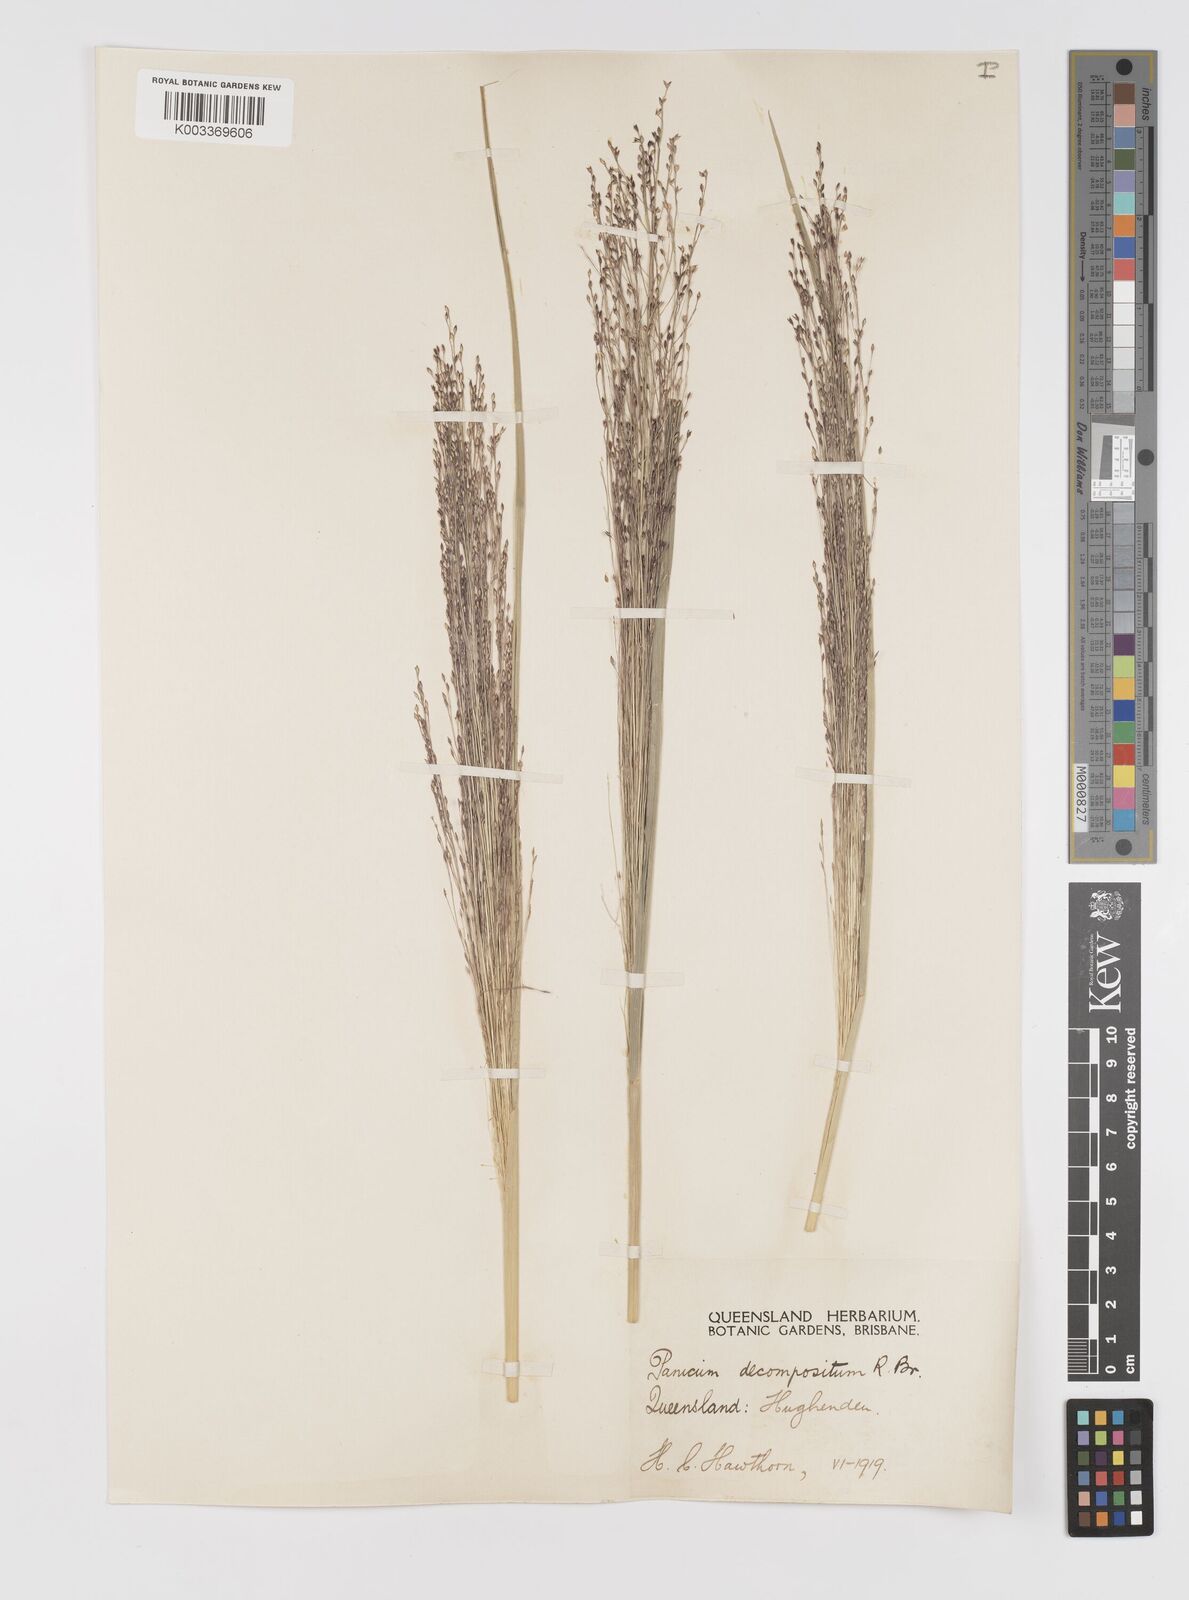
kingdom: Plantae
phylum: Tracheophyta
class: Liliopsida
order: Poales
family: Poaceae
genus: Panicum
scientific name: Panicum decompositum
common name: Australian millet
